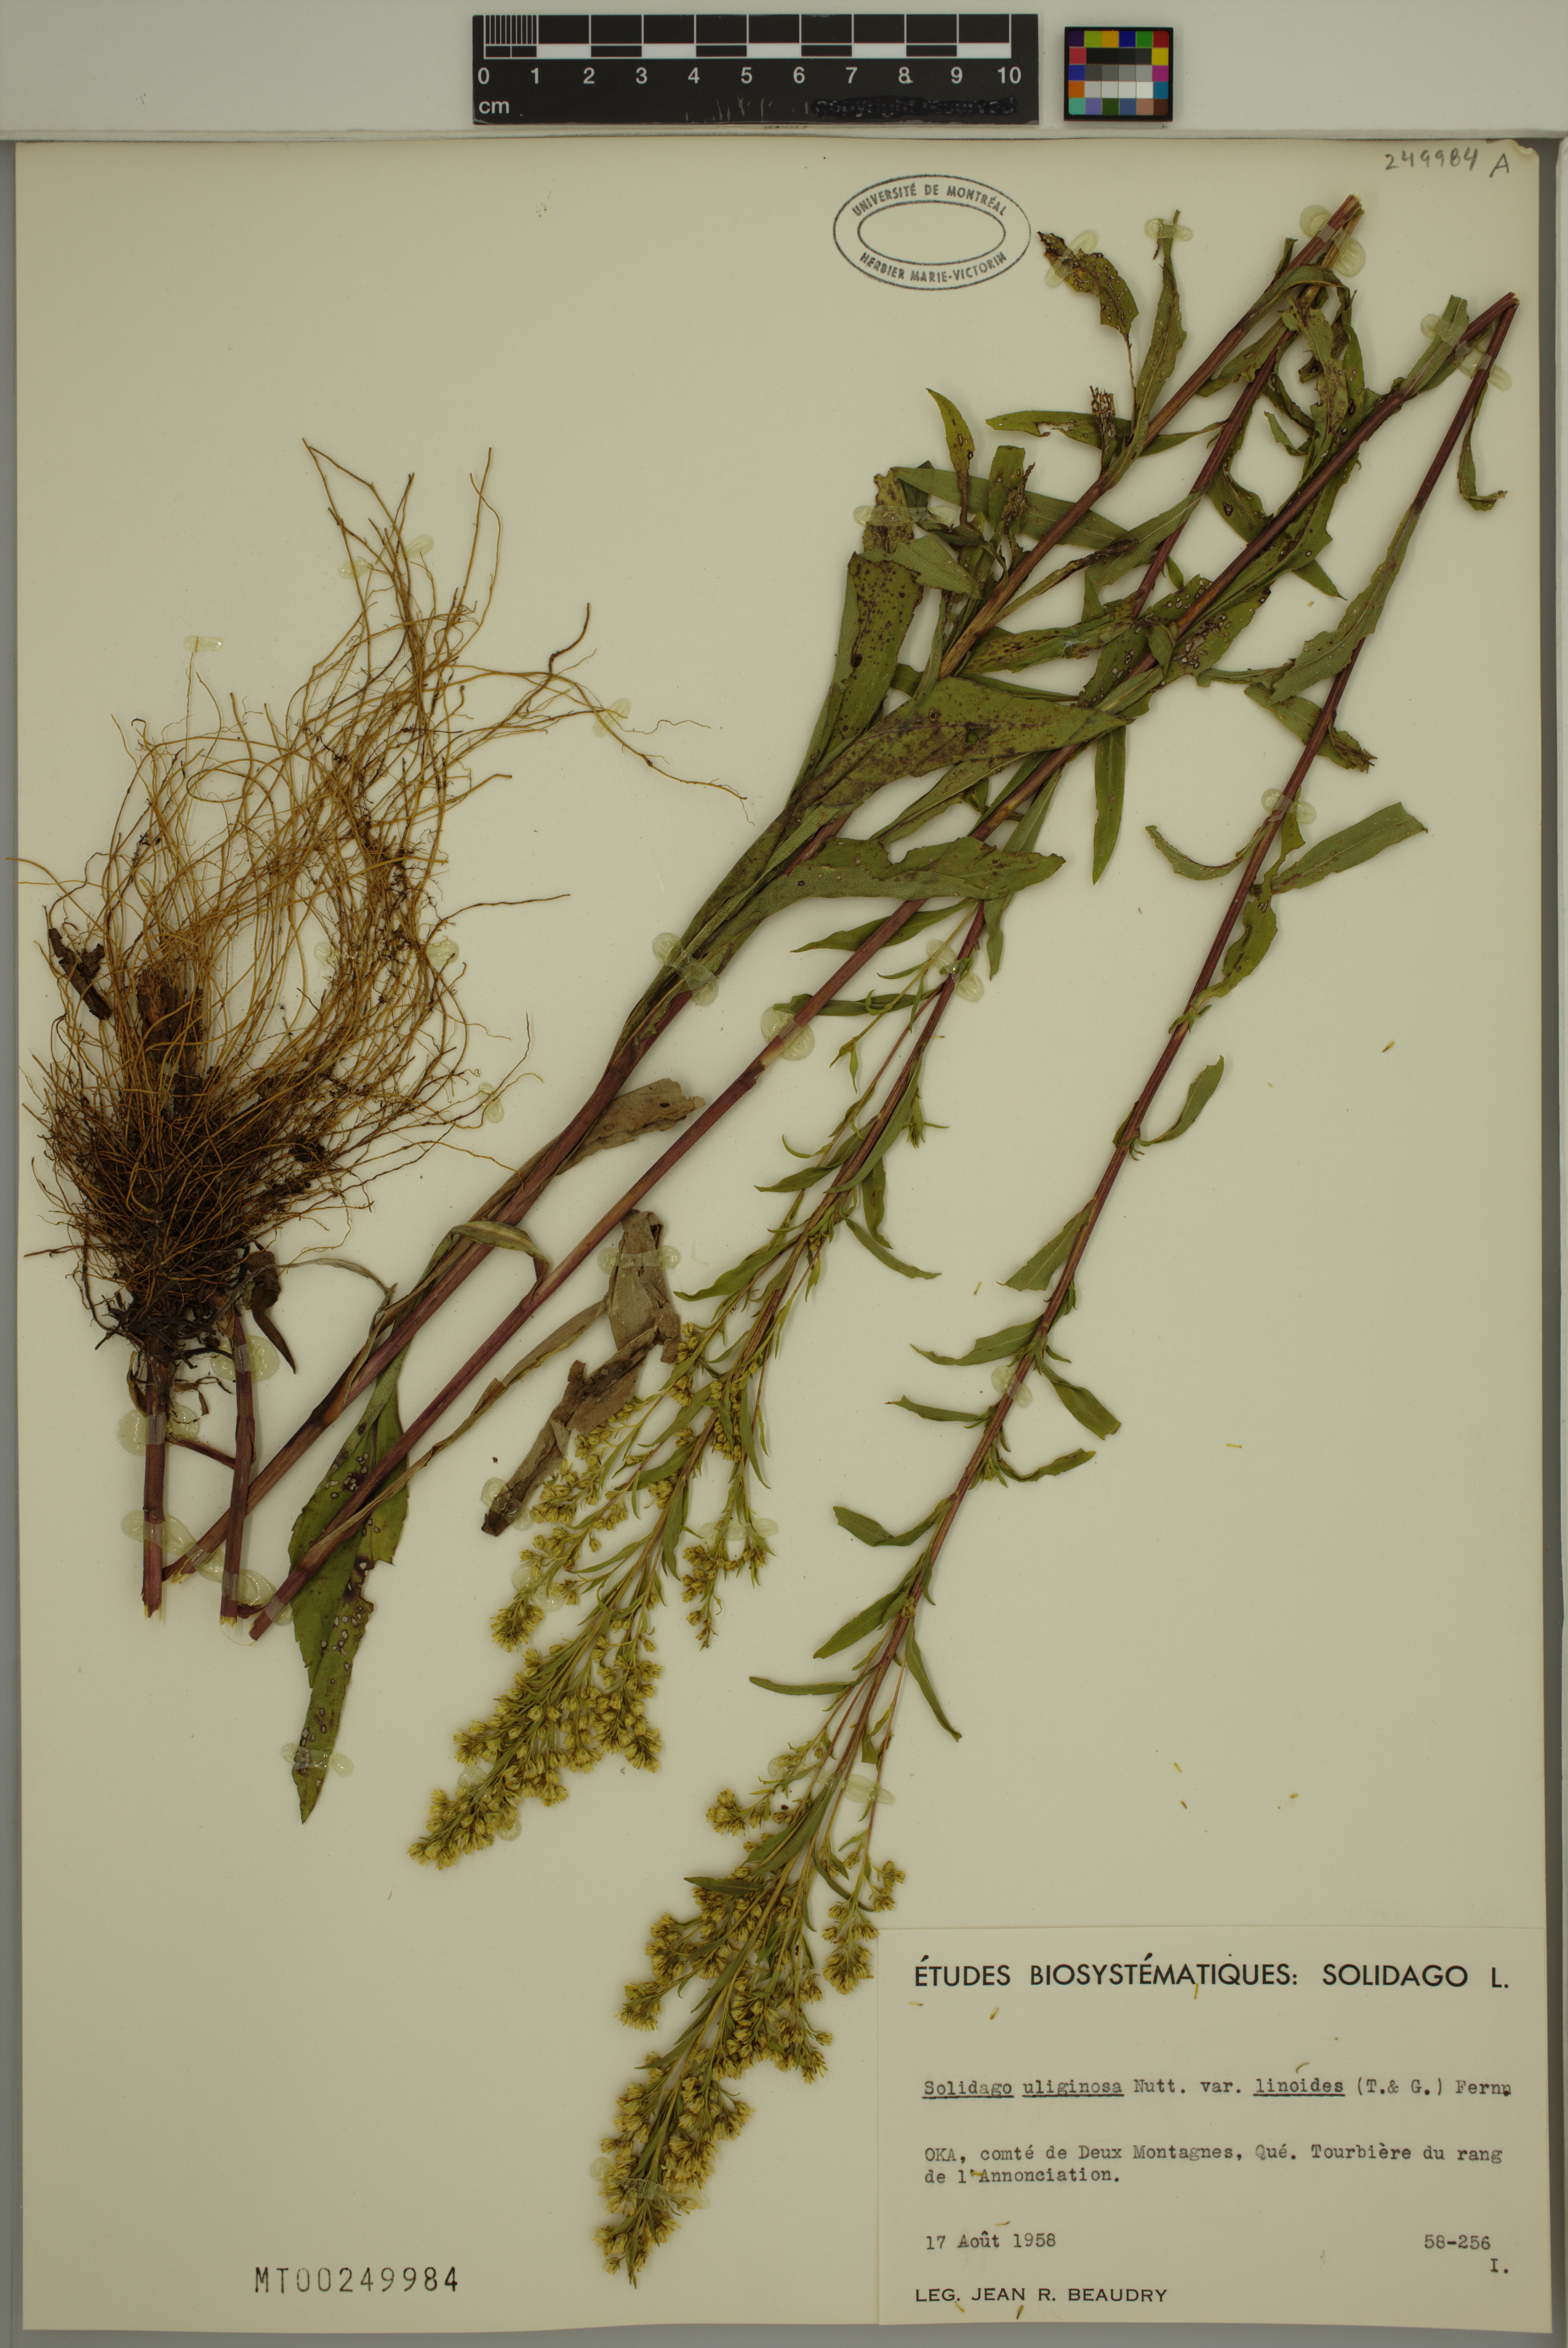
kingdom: Plantae
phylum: Tracheophyta
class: Magnoliopsida
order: Asterales
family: Asteraceae
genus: Solidago
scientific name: Solidago uliginosa
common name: Bog goldenrod
